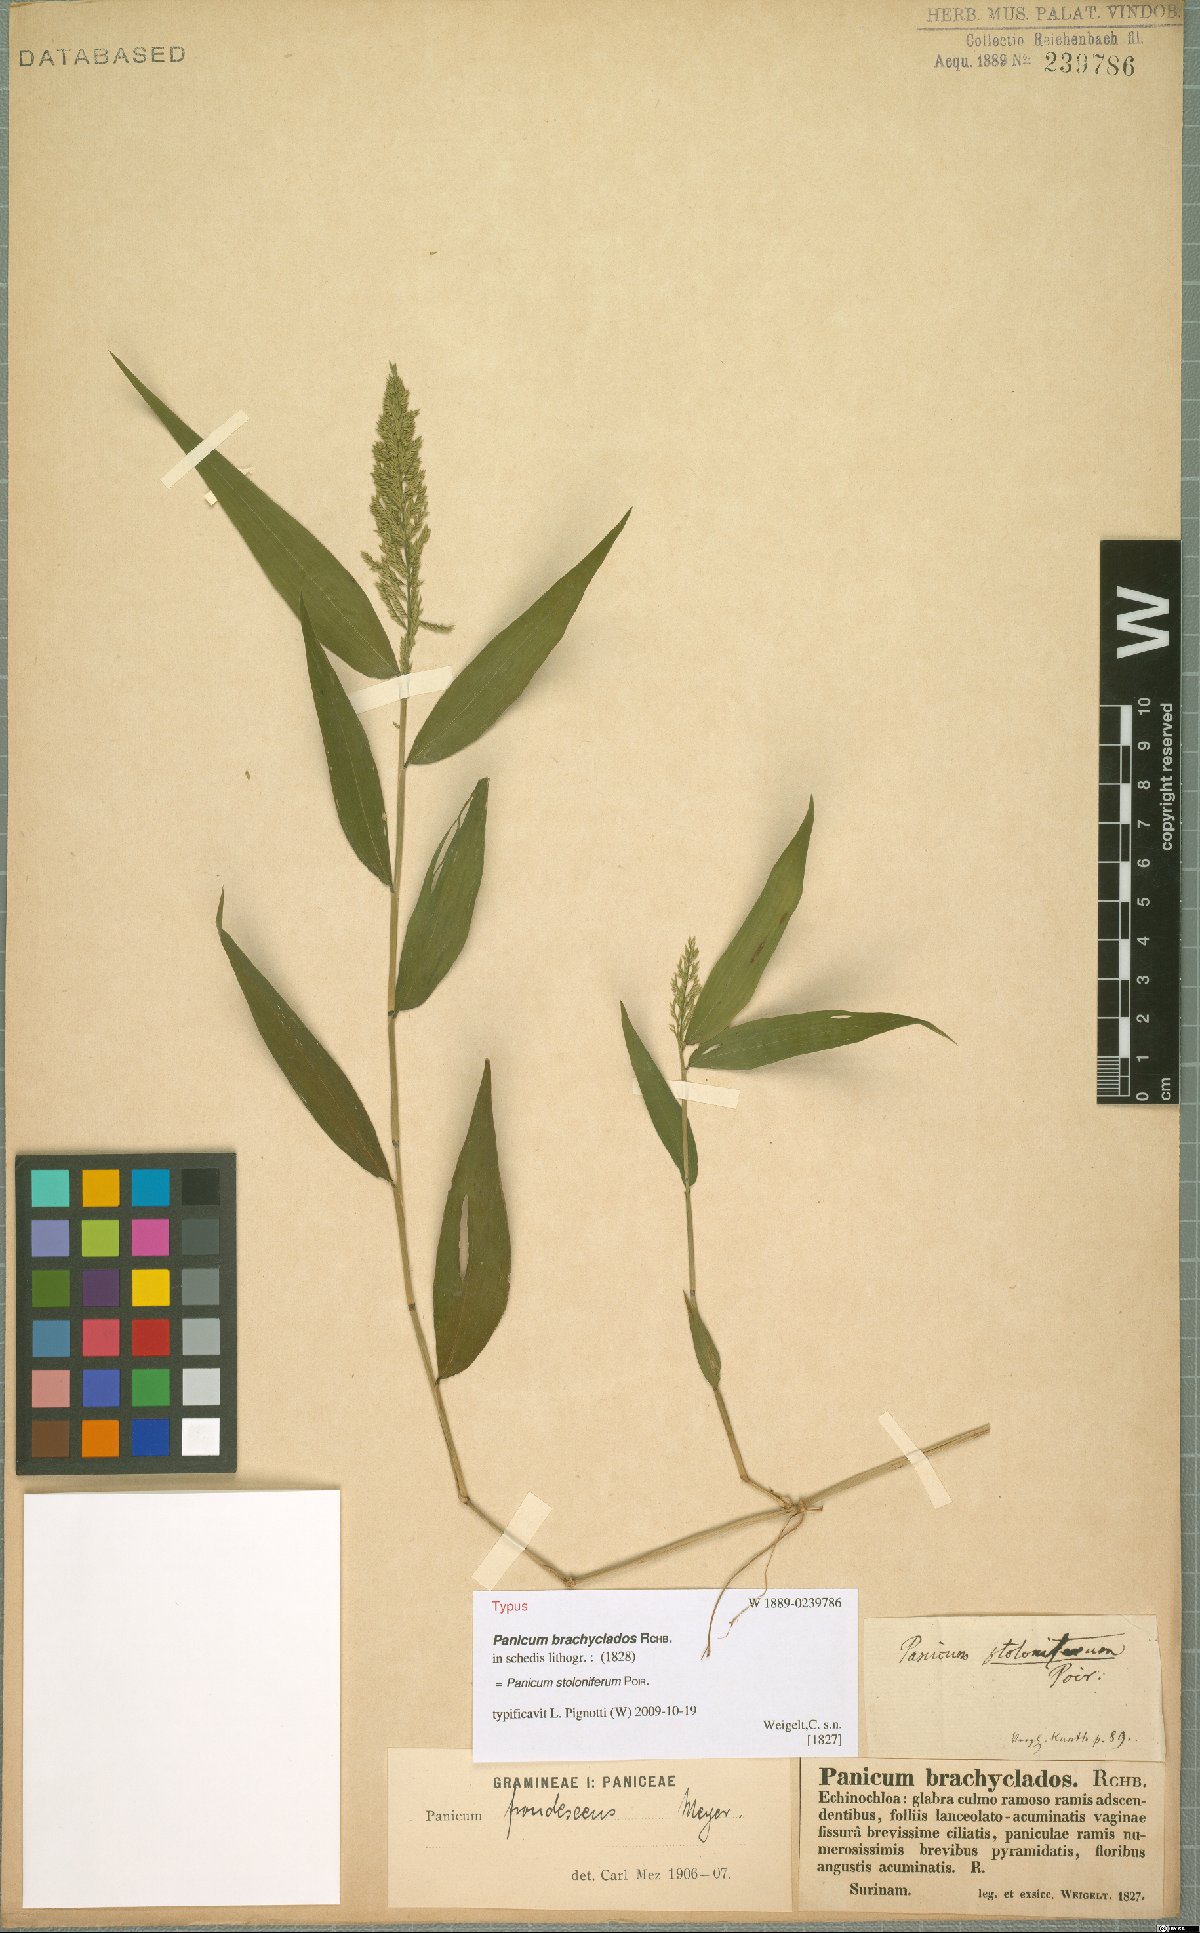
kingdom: Plantae
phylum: Tracheophyta
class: Liliopsida
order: Poales
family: Poaceae
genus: Ocellochloa
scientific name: Ocellochloa stolonifera
